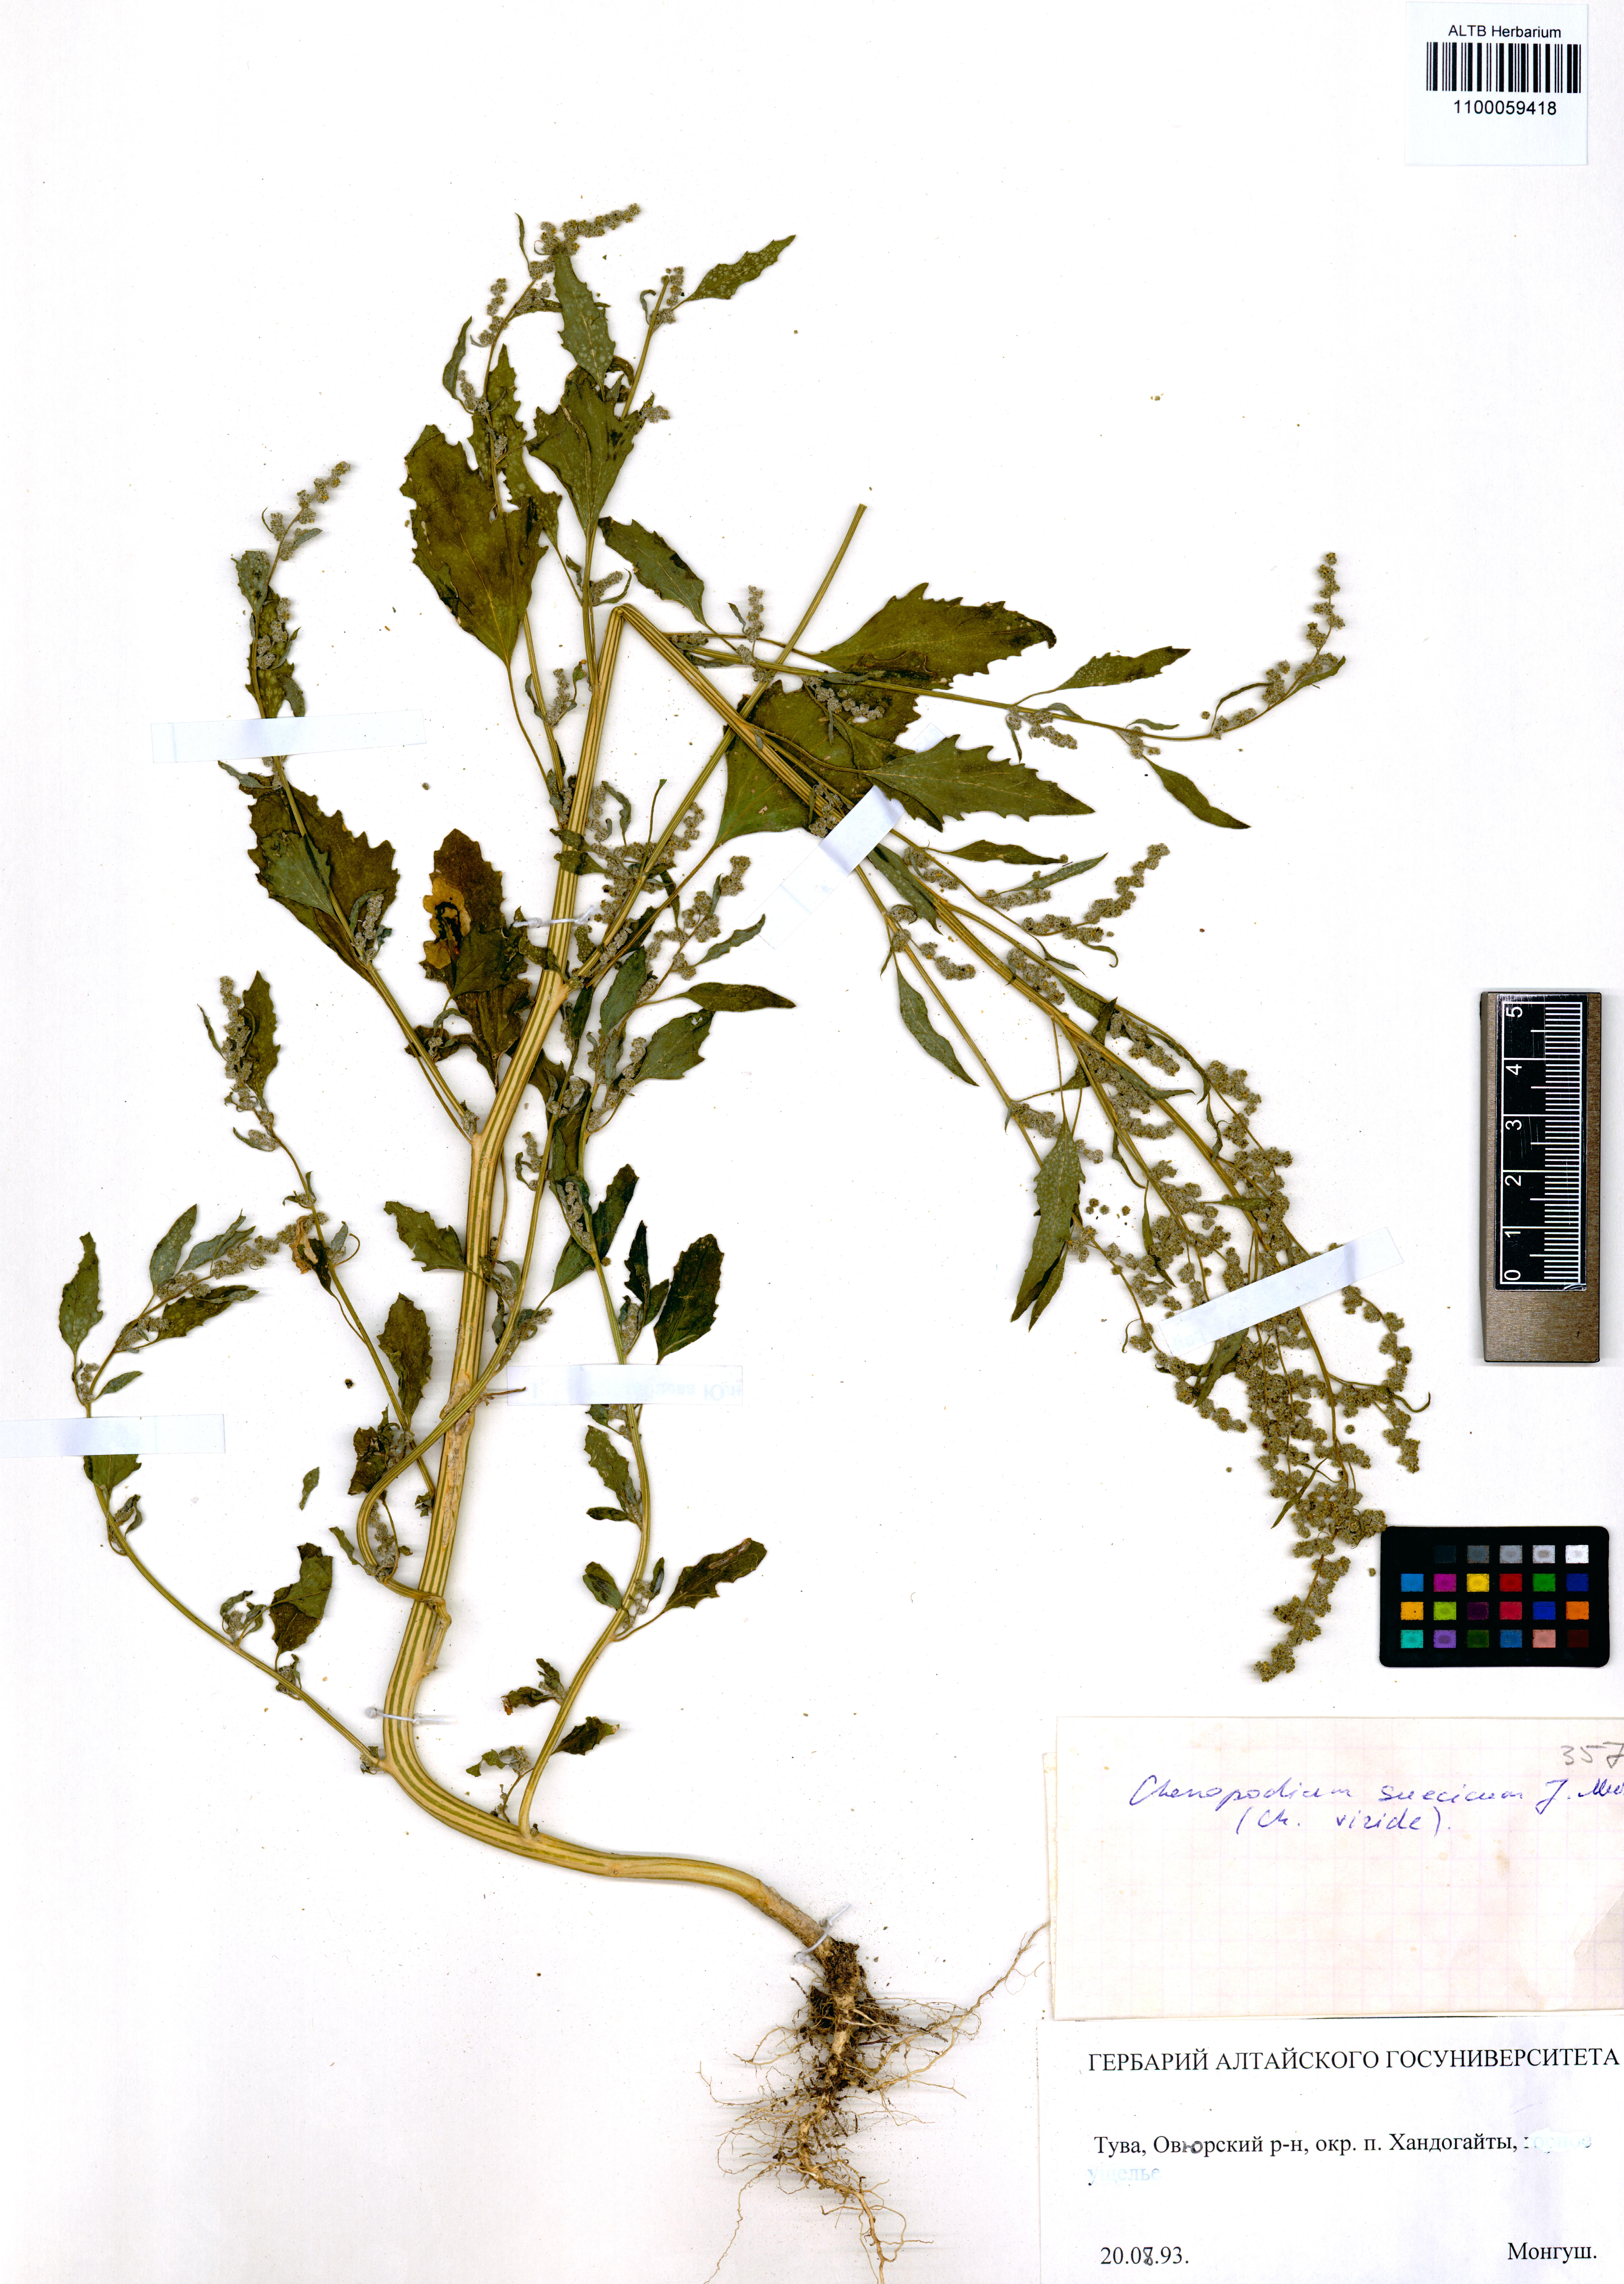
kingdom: Plantae
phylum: Tracheophyta
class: Magnoliopsida
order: Caryophyllales
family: Amaranthaceae
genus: Chenopodium
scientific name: Chenopodium suecicum
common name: Swedish goosefoot
